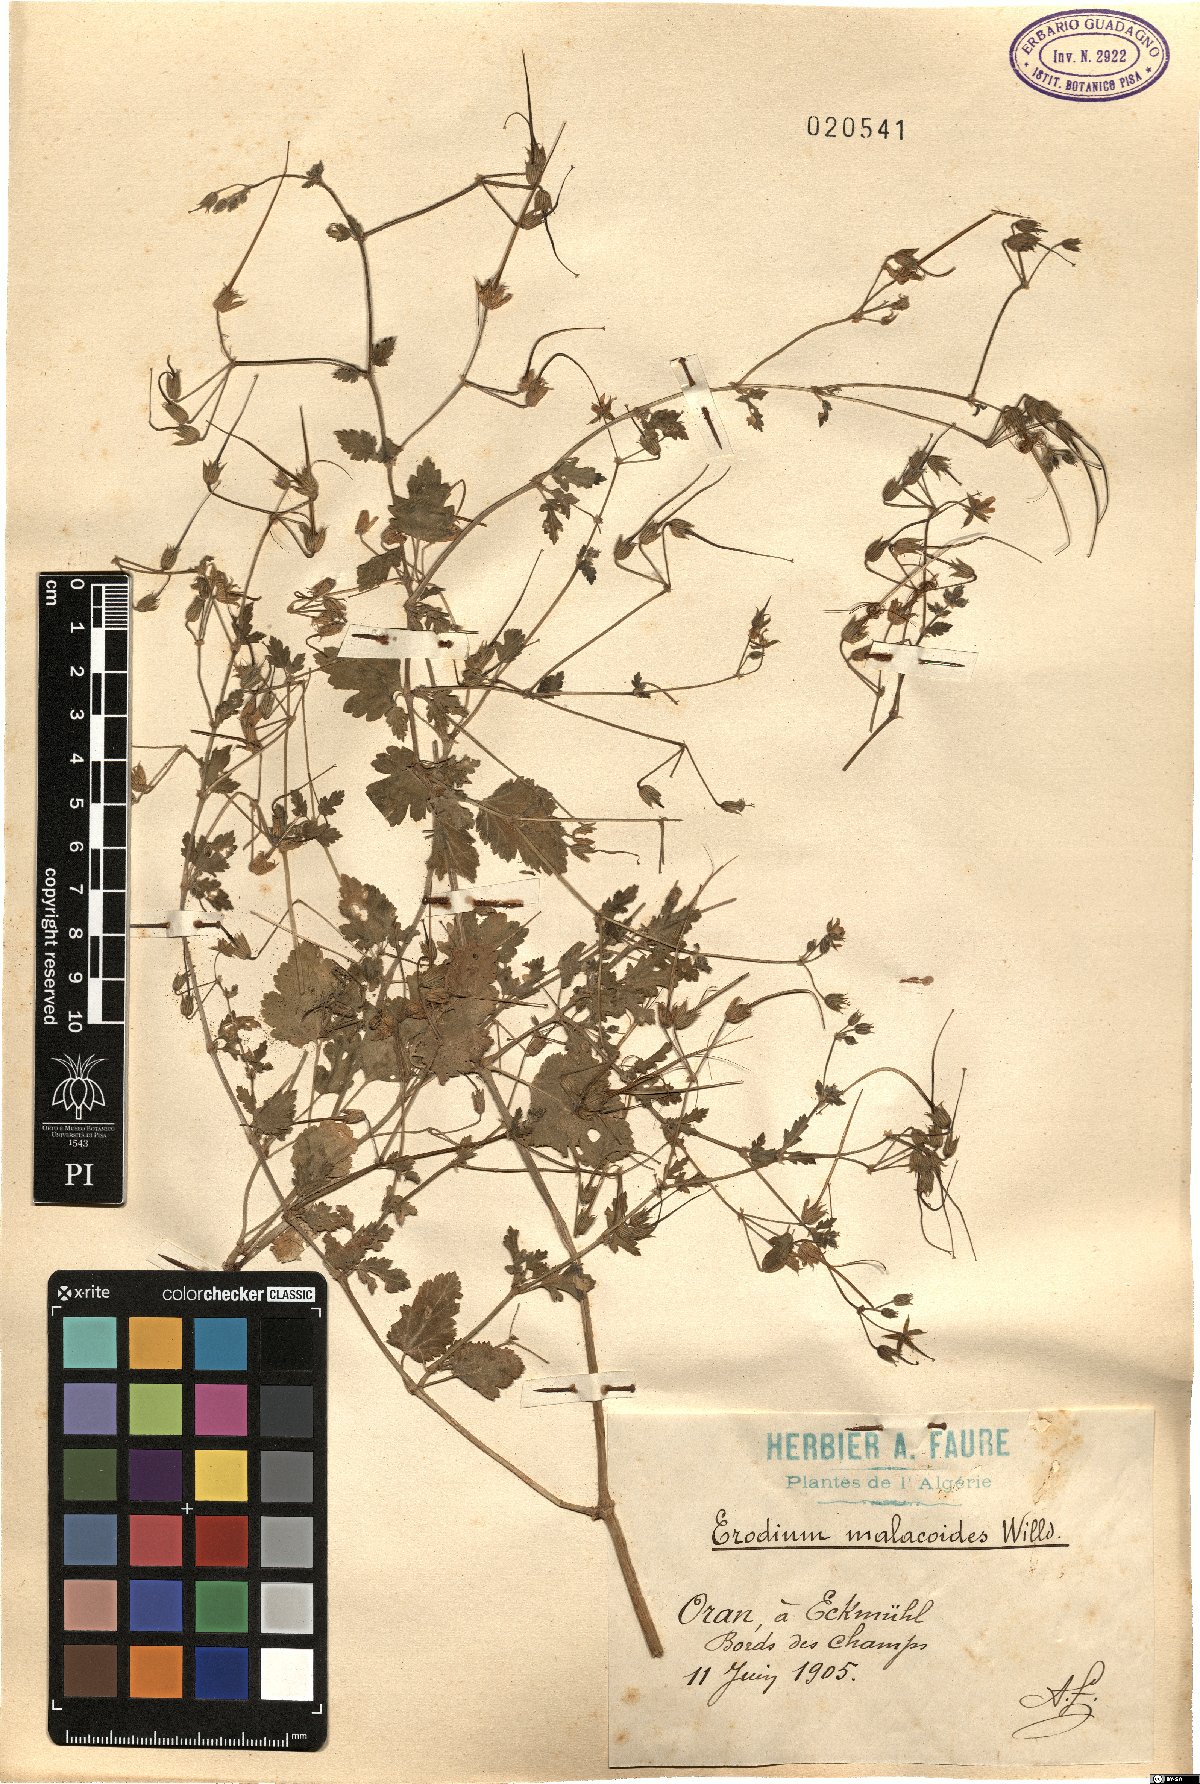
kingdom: Plantae
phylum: Tracheophyta
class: Magnoliopsida
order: Geraniales
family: Geraniaceae
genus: Erodium
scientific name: Erodium malacoides
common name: Soft stork's-bill
